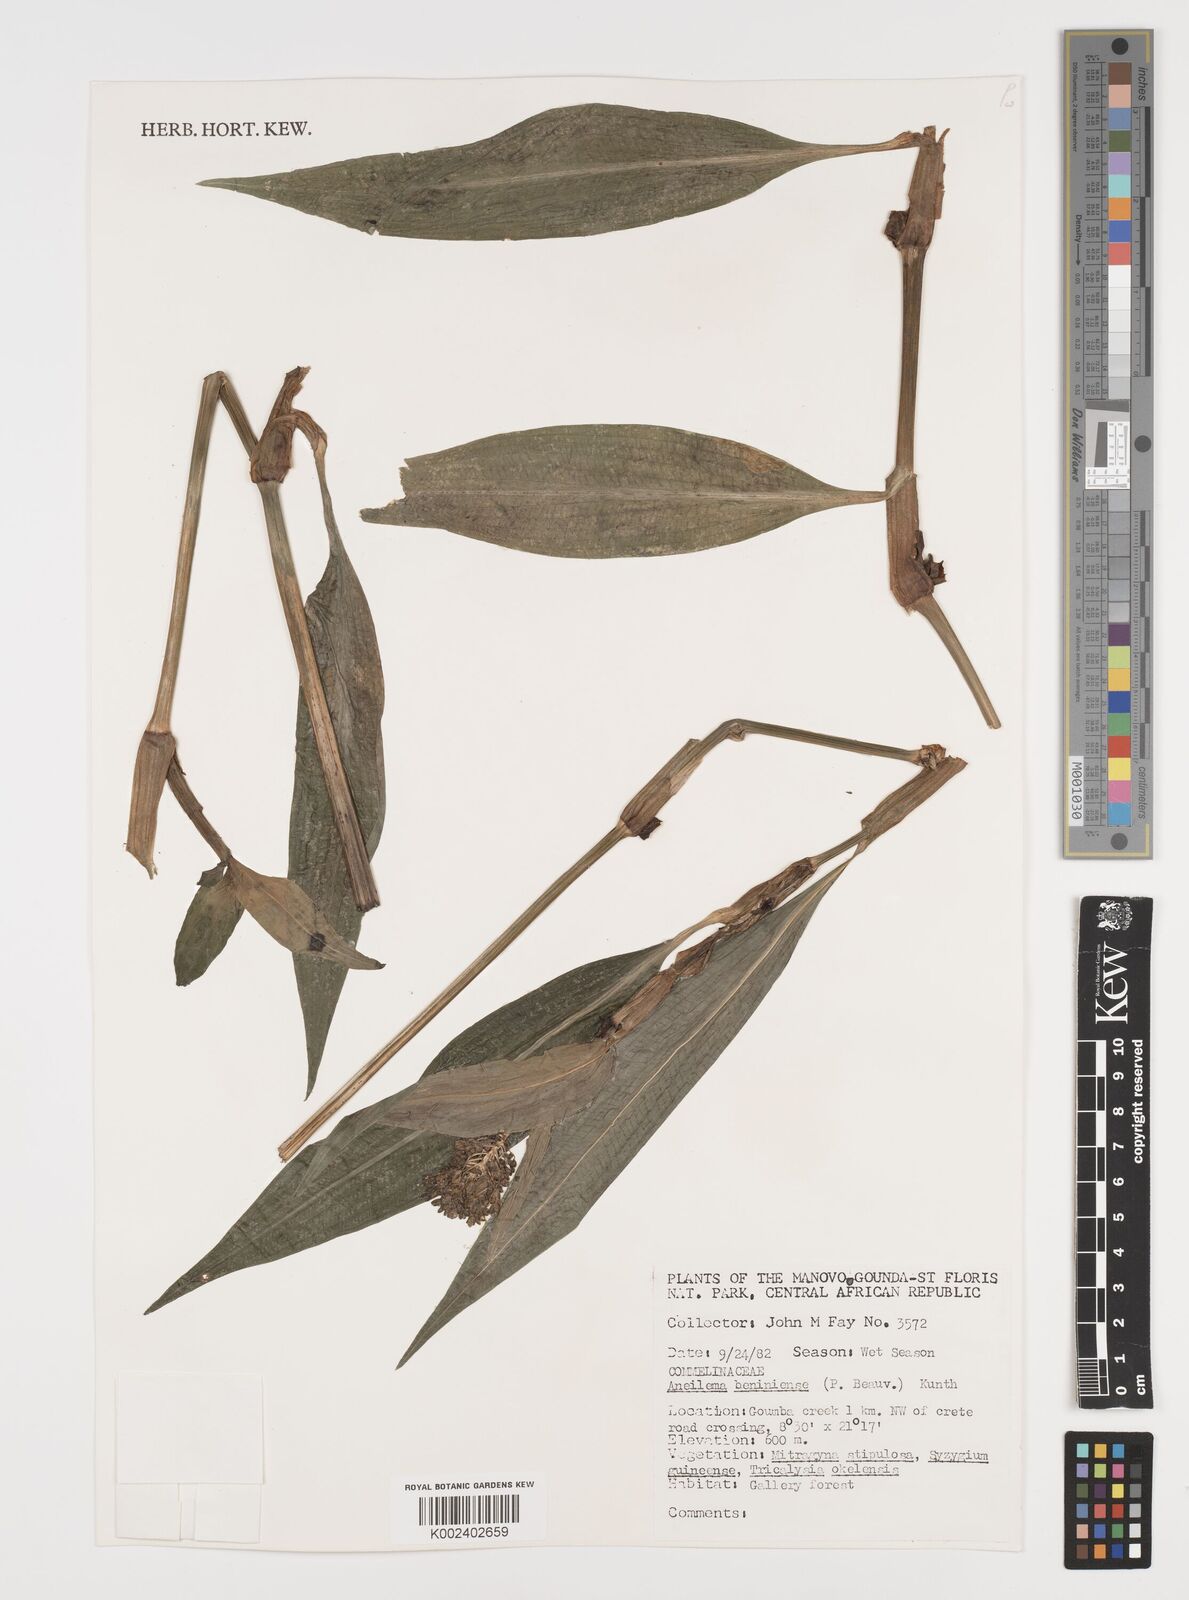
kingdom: Plantae
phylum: Tracheophyta
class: Liliopsida
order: Commelinales
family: Commelinaceae
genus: Aneilema
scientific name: Aneilema beniniense
